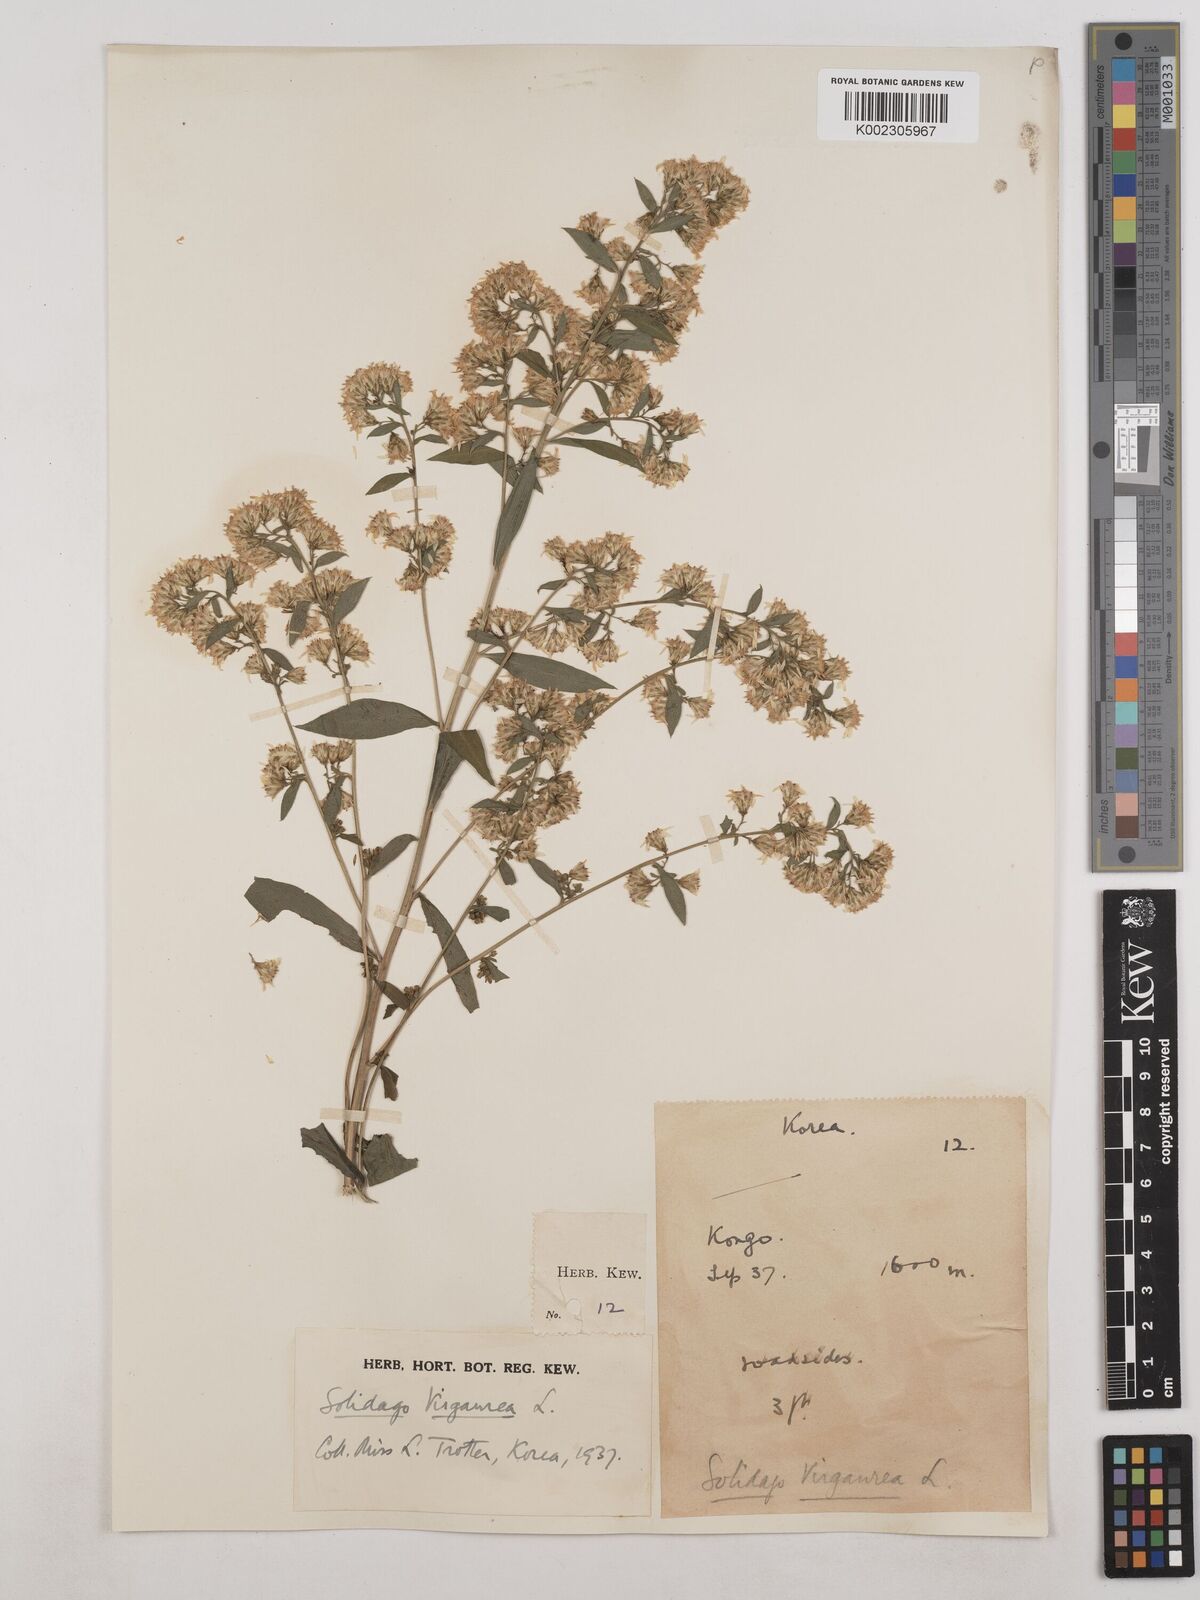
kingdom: Plantae
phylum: Tracheophyta
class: Magnoliopsida
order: Asterales
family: Asteraceae
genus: Solidago
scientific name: Solidago virgaurea
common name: Goldenrod
